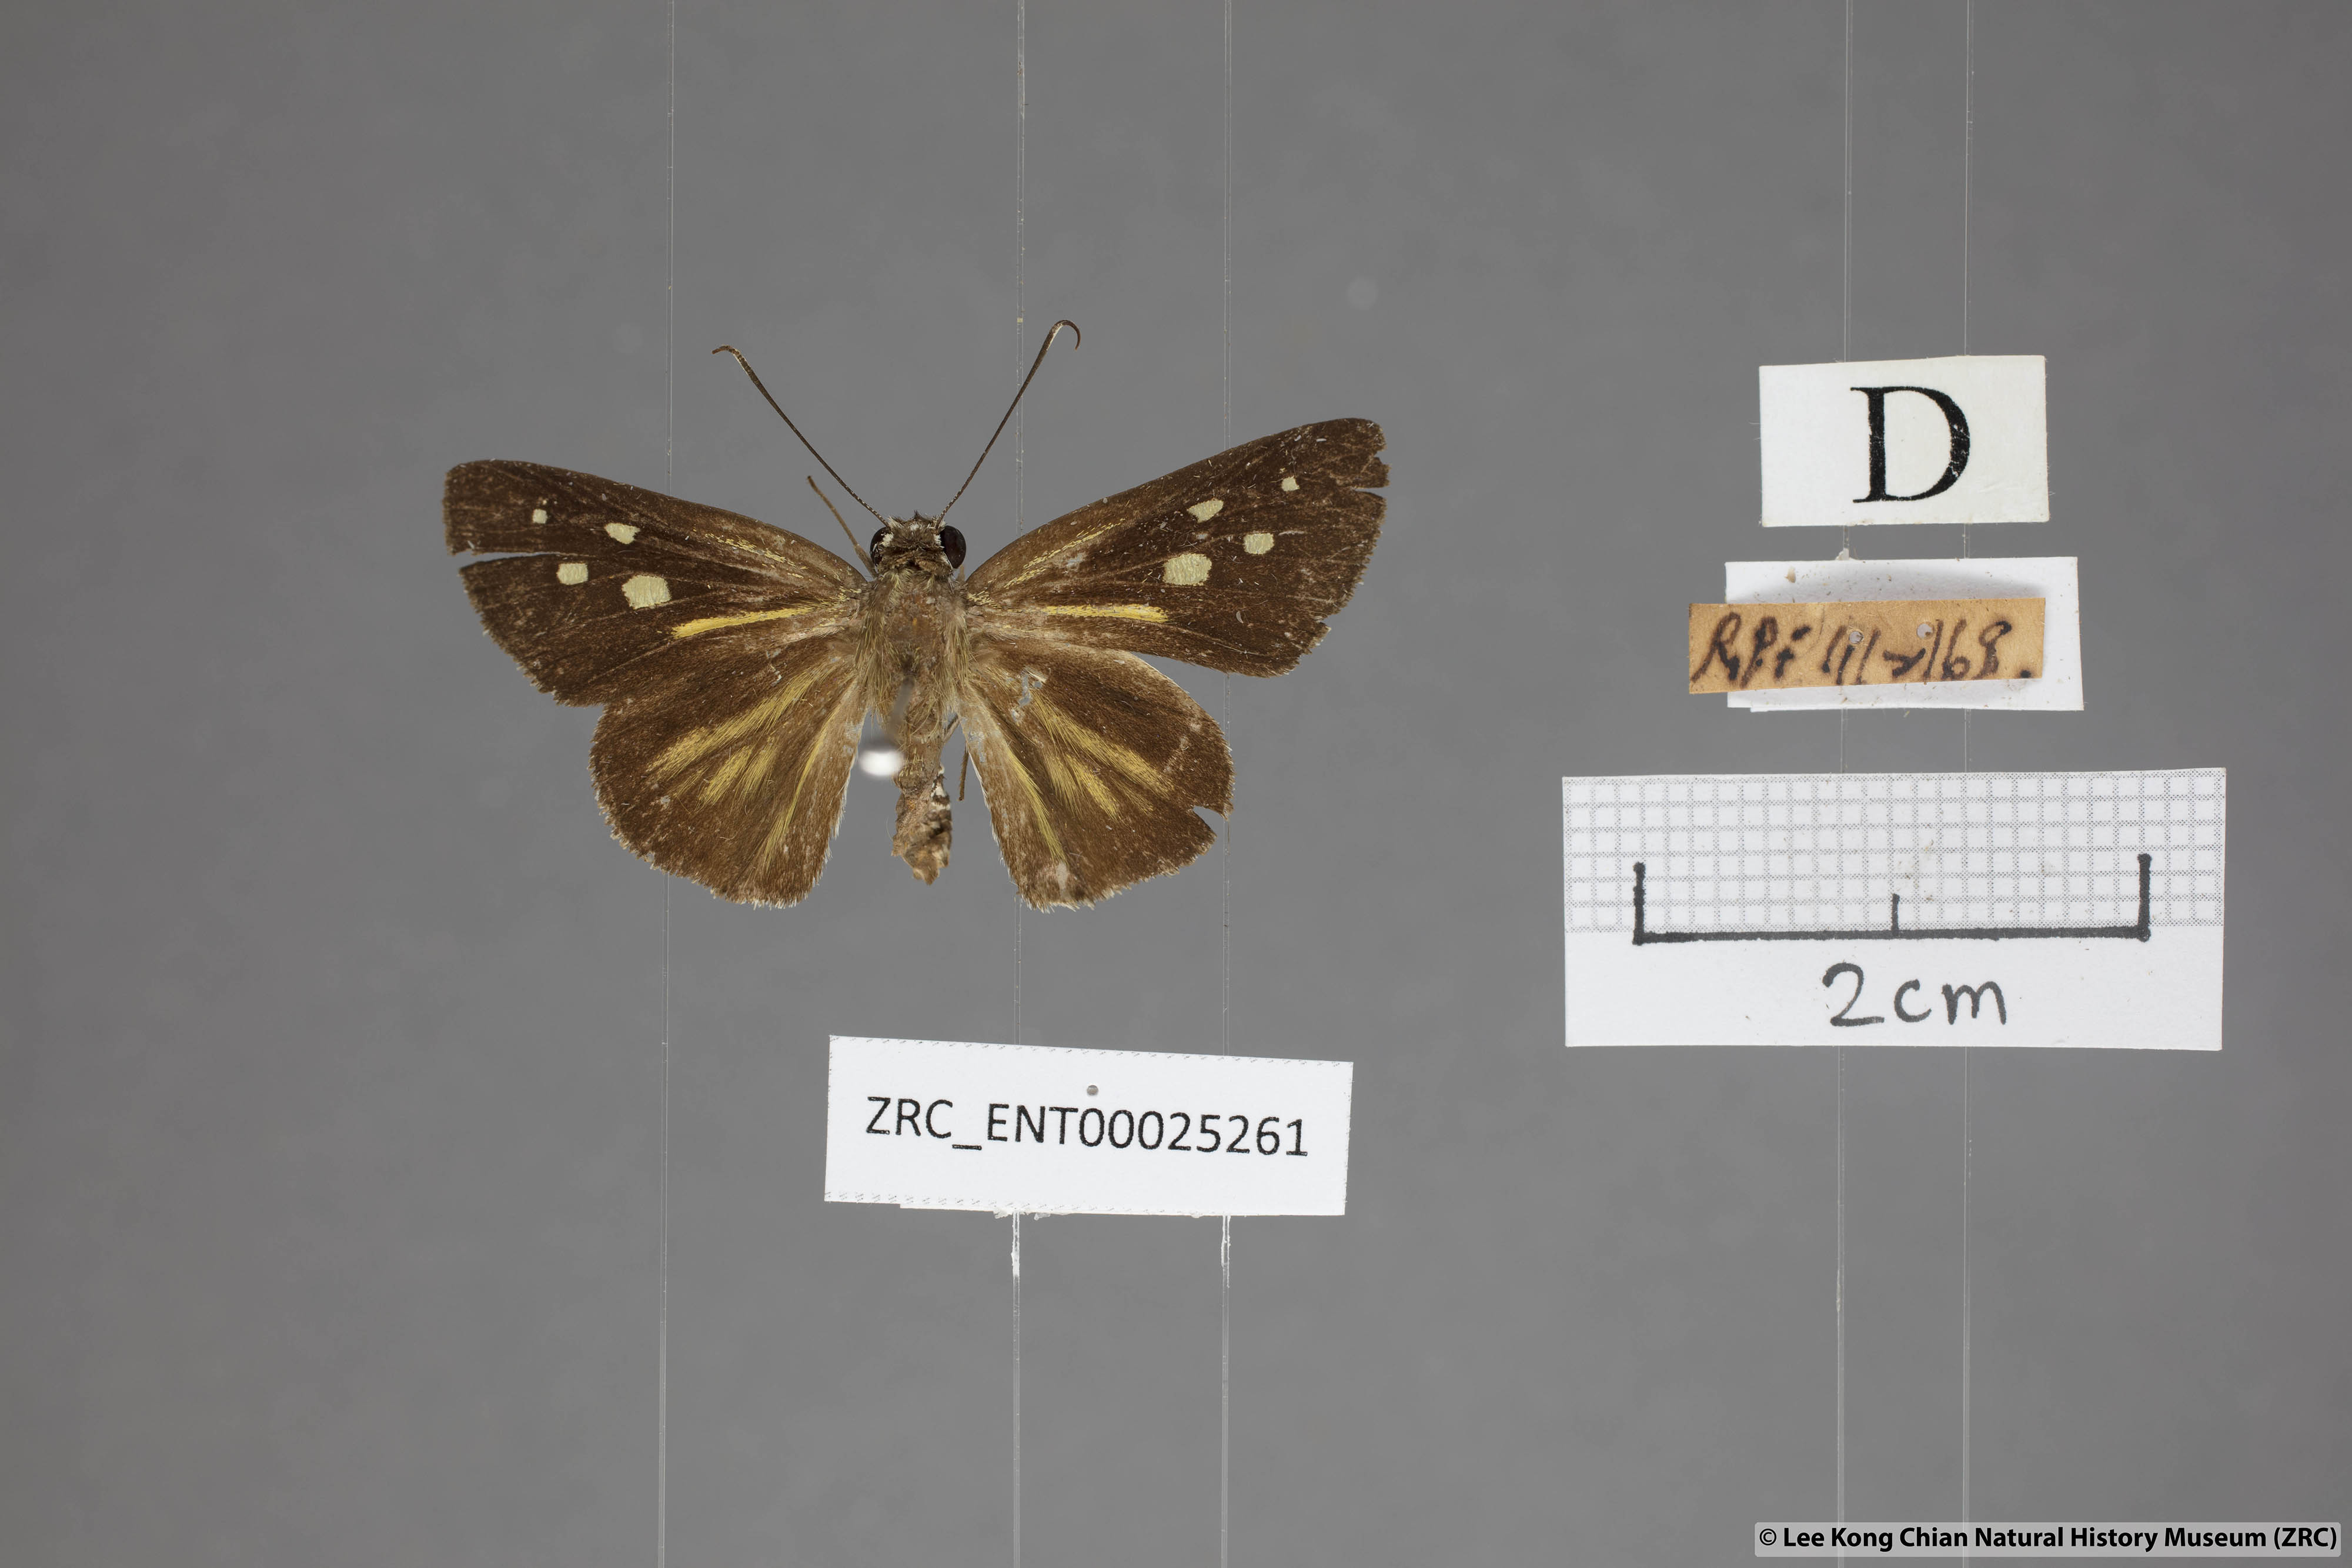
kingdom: Animalia
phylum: Arthropoda
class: Insecta
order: Lepidoptera
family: Hesperiidae
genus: Plastingia
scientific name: Plastingia naga
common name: Chequered lancer
